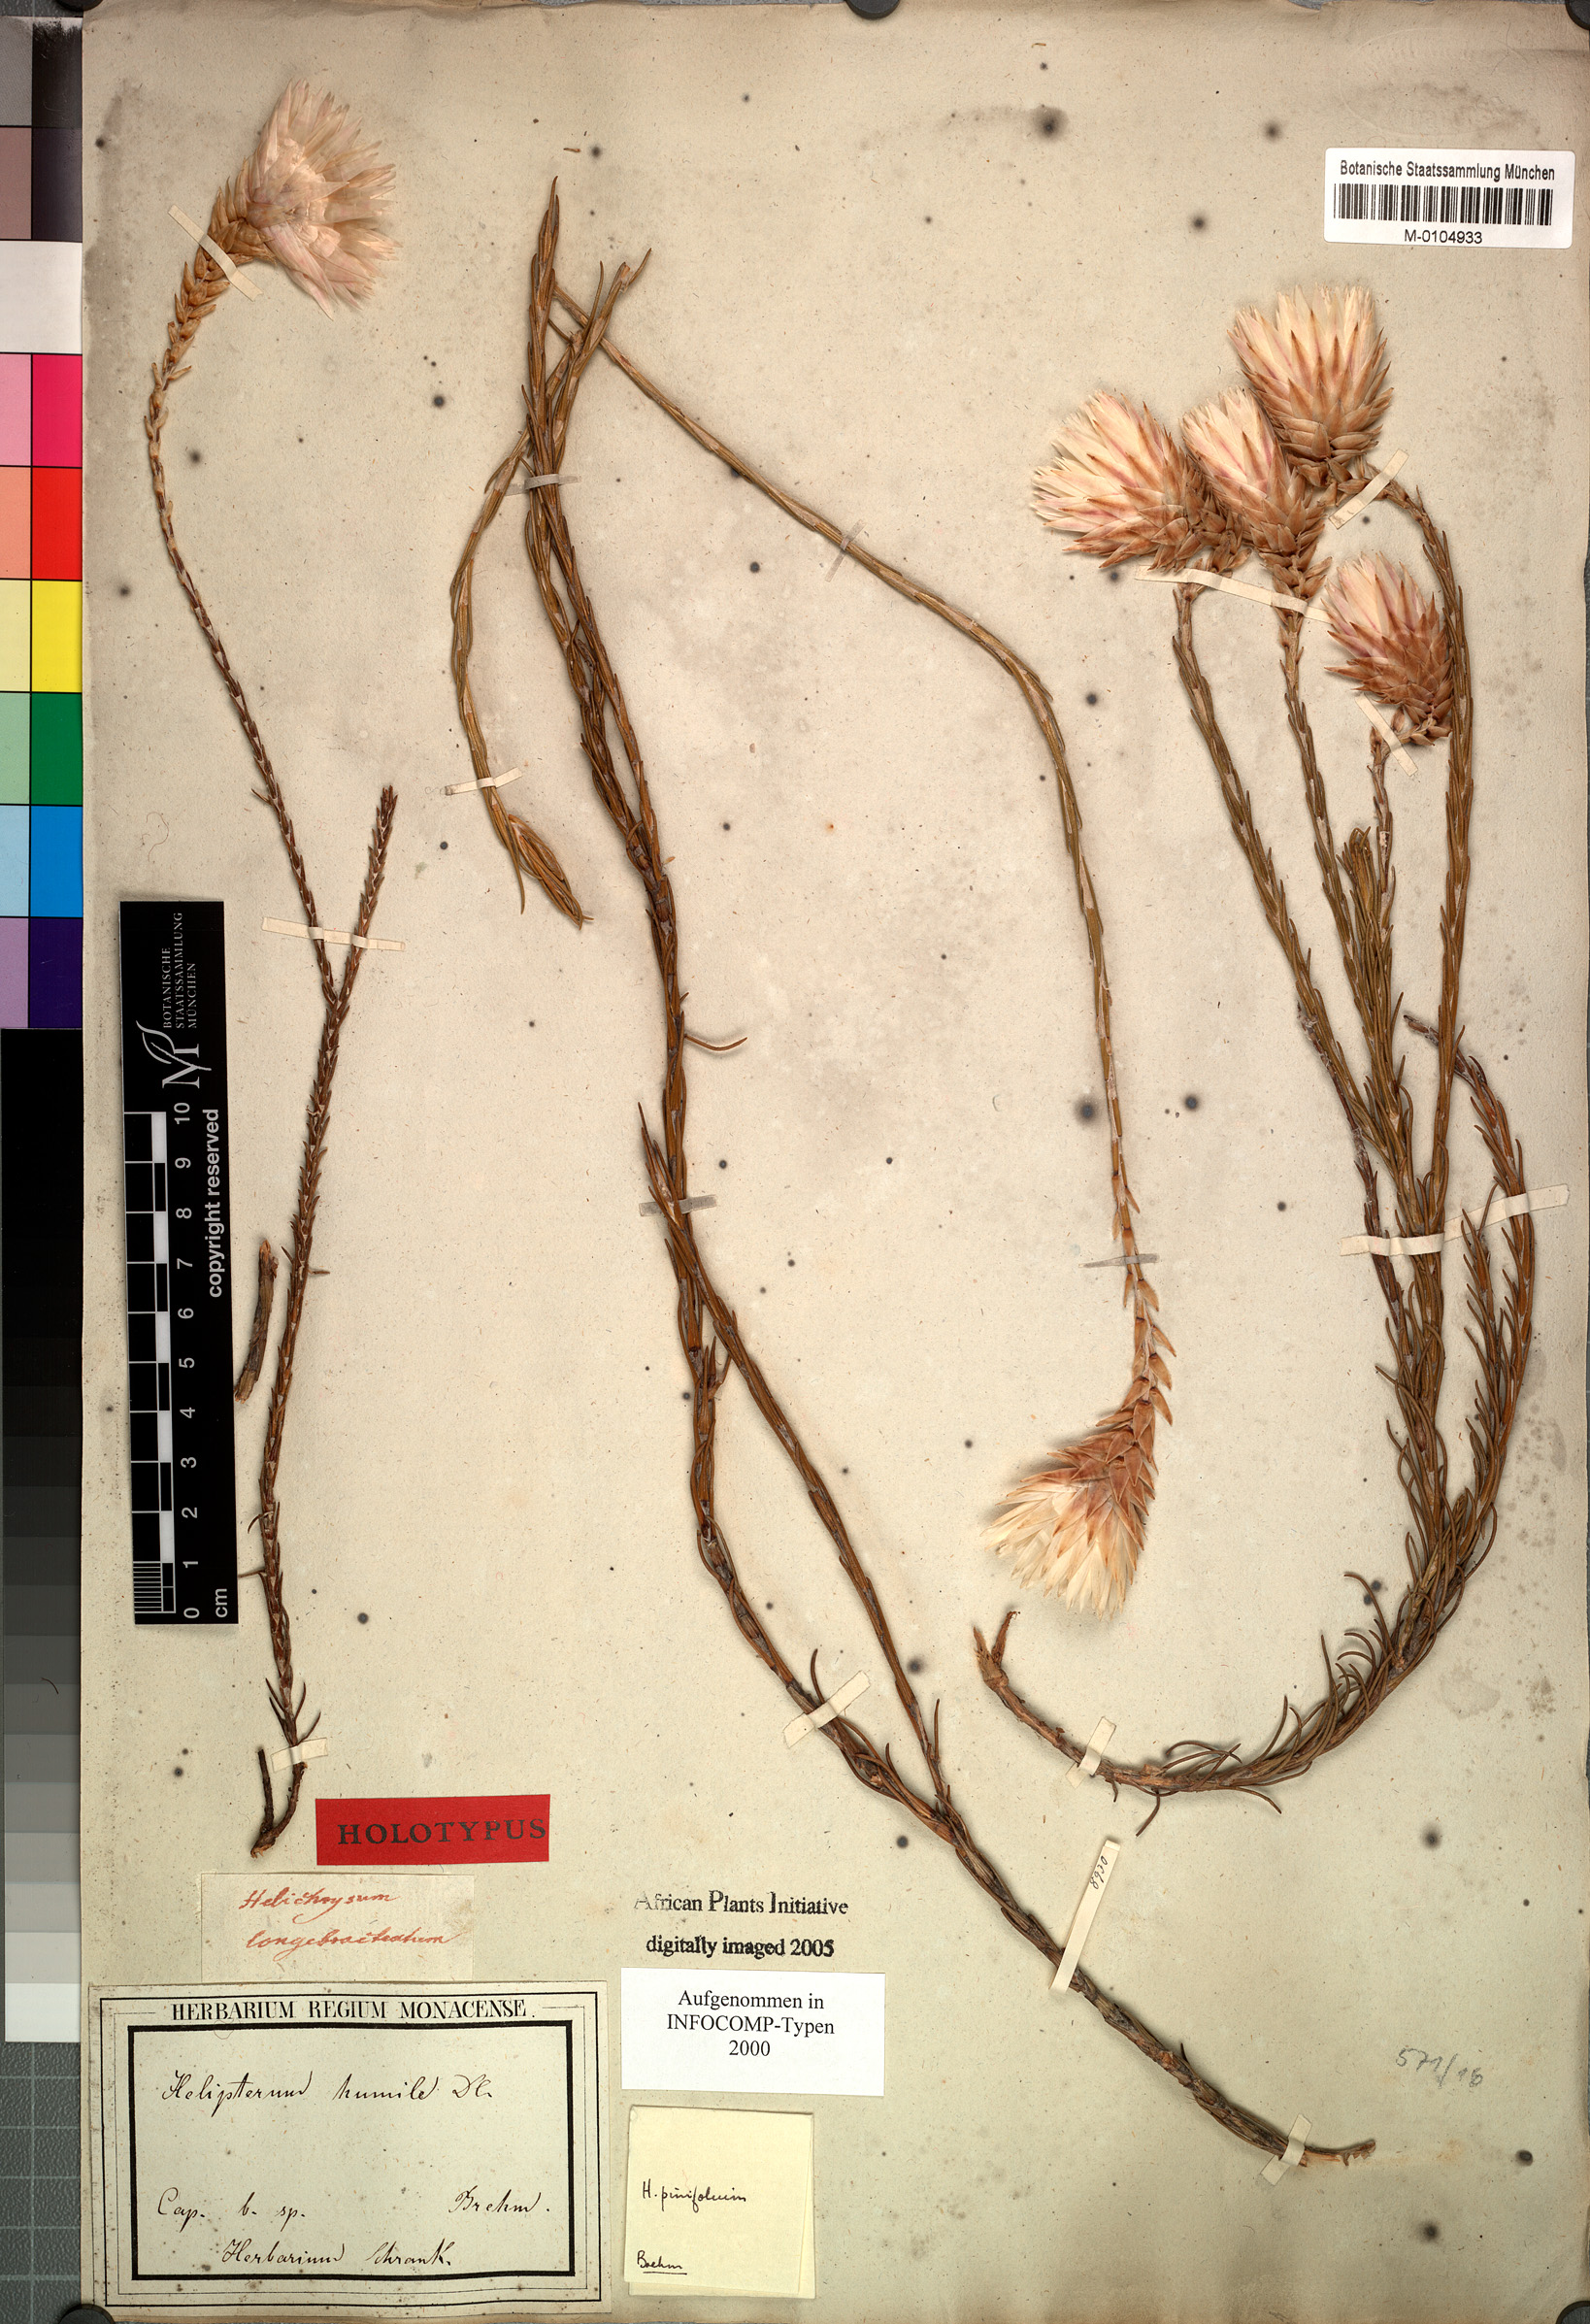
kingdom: Plantae
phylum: Tracheophyta
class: Magnoliopsida
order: Asterales
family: Asteraceae
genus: Edmondia
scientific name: Edmondia pinifolia
